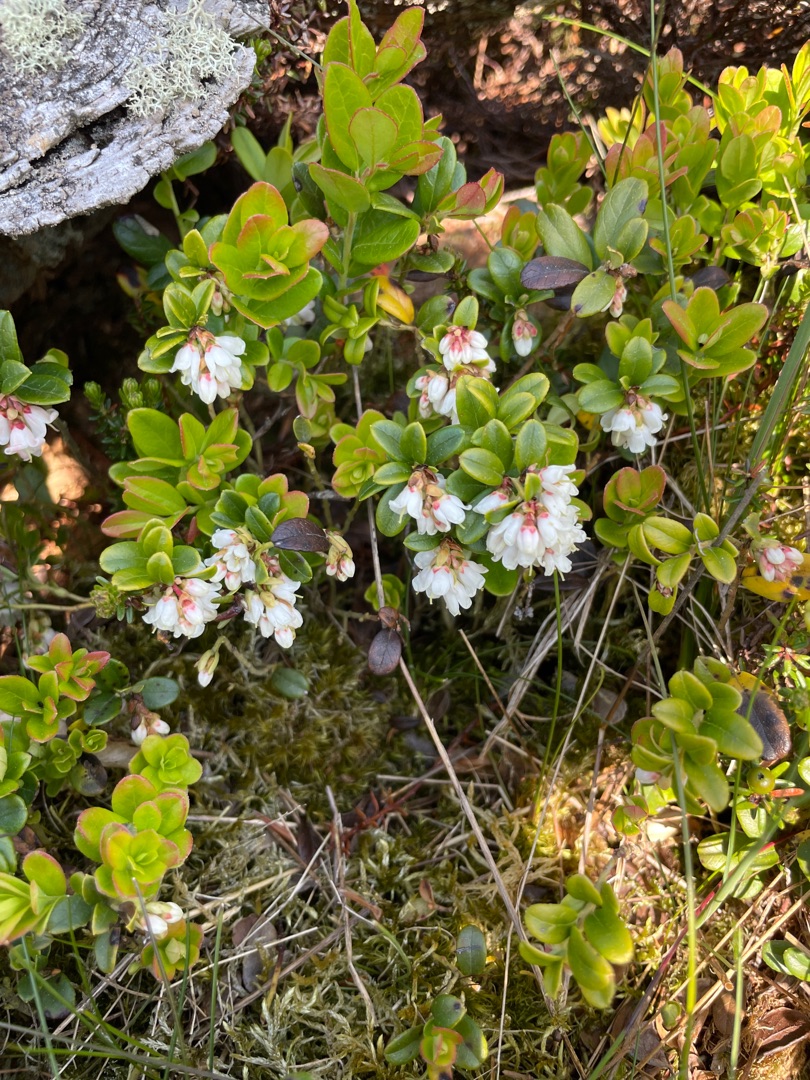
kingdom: Plantae
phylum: Tracheophyta
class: Magnoliopsida
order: Ericales
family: Ericaceae
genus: Vaccinium
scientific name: Vaccinium vitis-idaea
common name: Tyttebær
